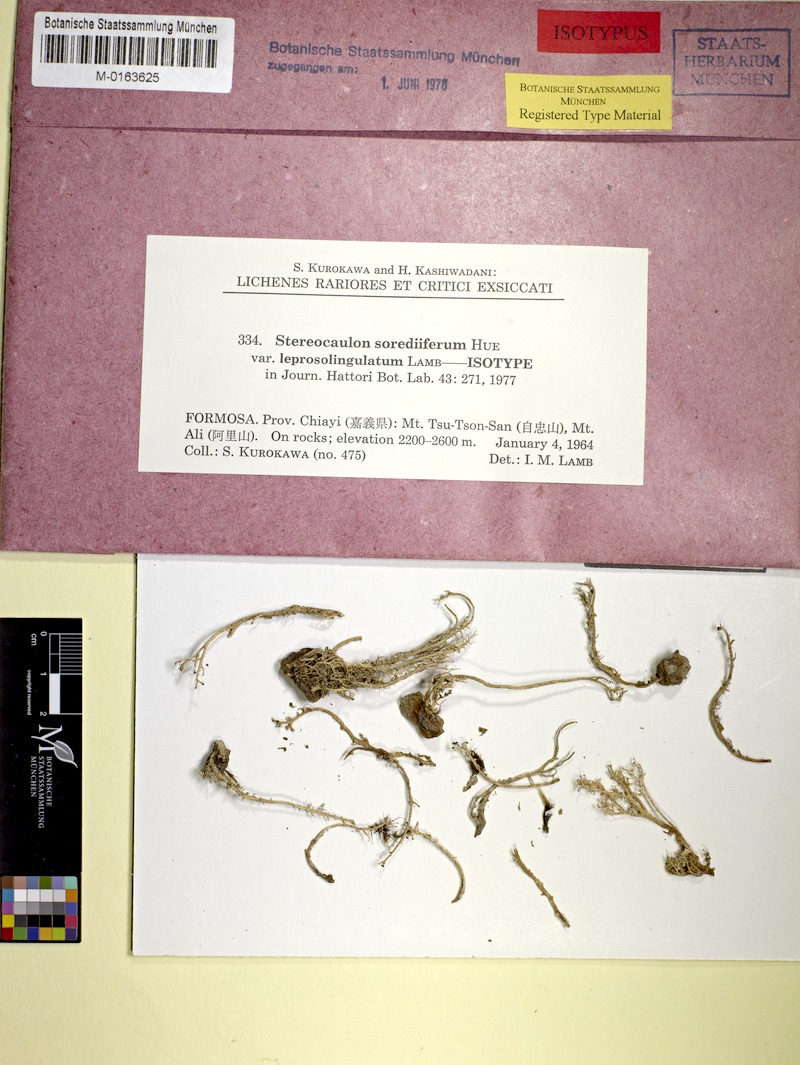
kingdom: Fungi
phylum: Ascomycota
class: Lecanoromycetes
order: Lecanorales
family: Stereocaulaceae
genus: Stereocaulon
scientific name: Stereocaulon sorediiferum
